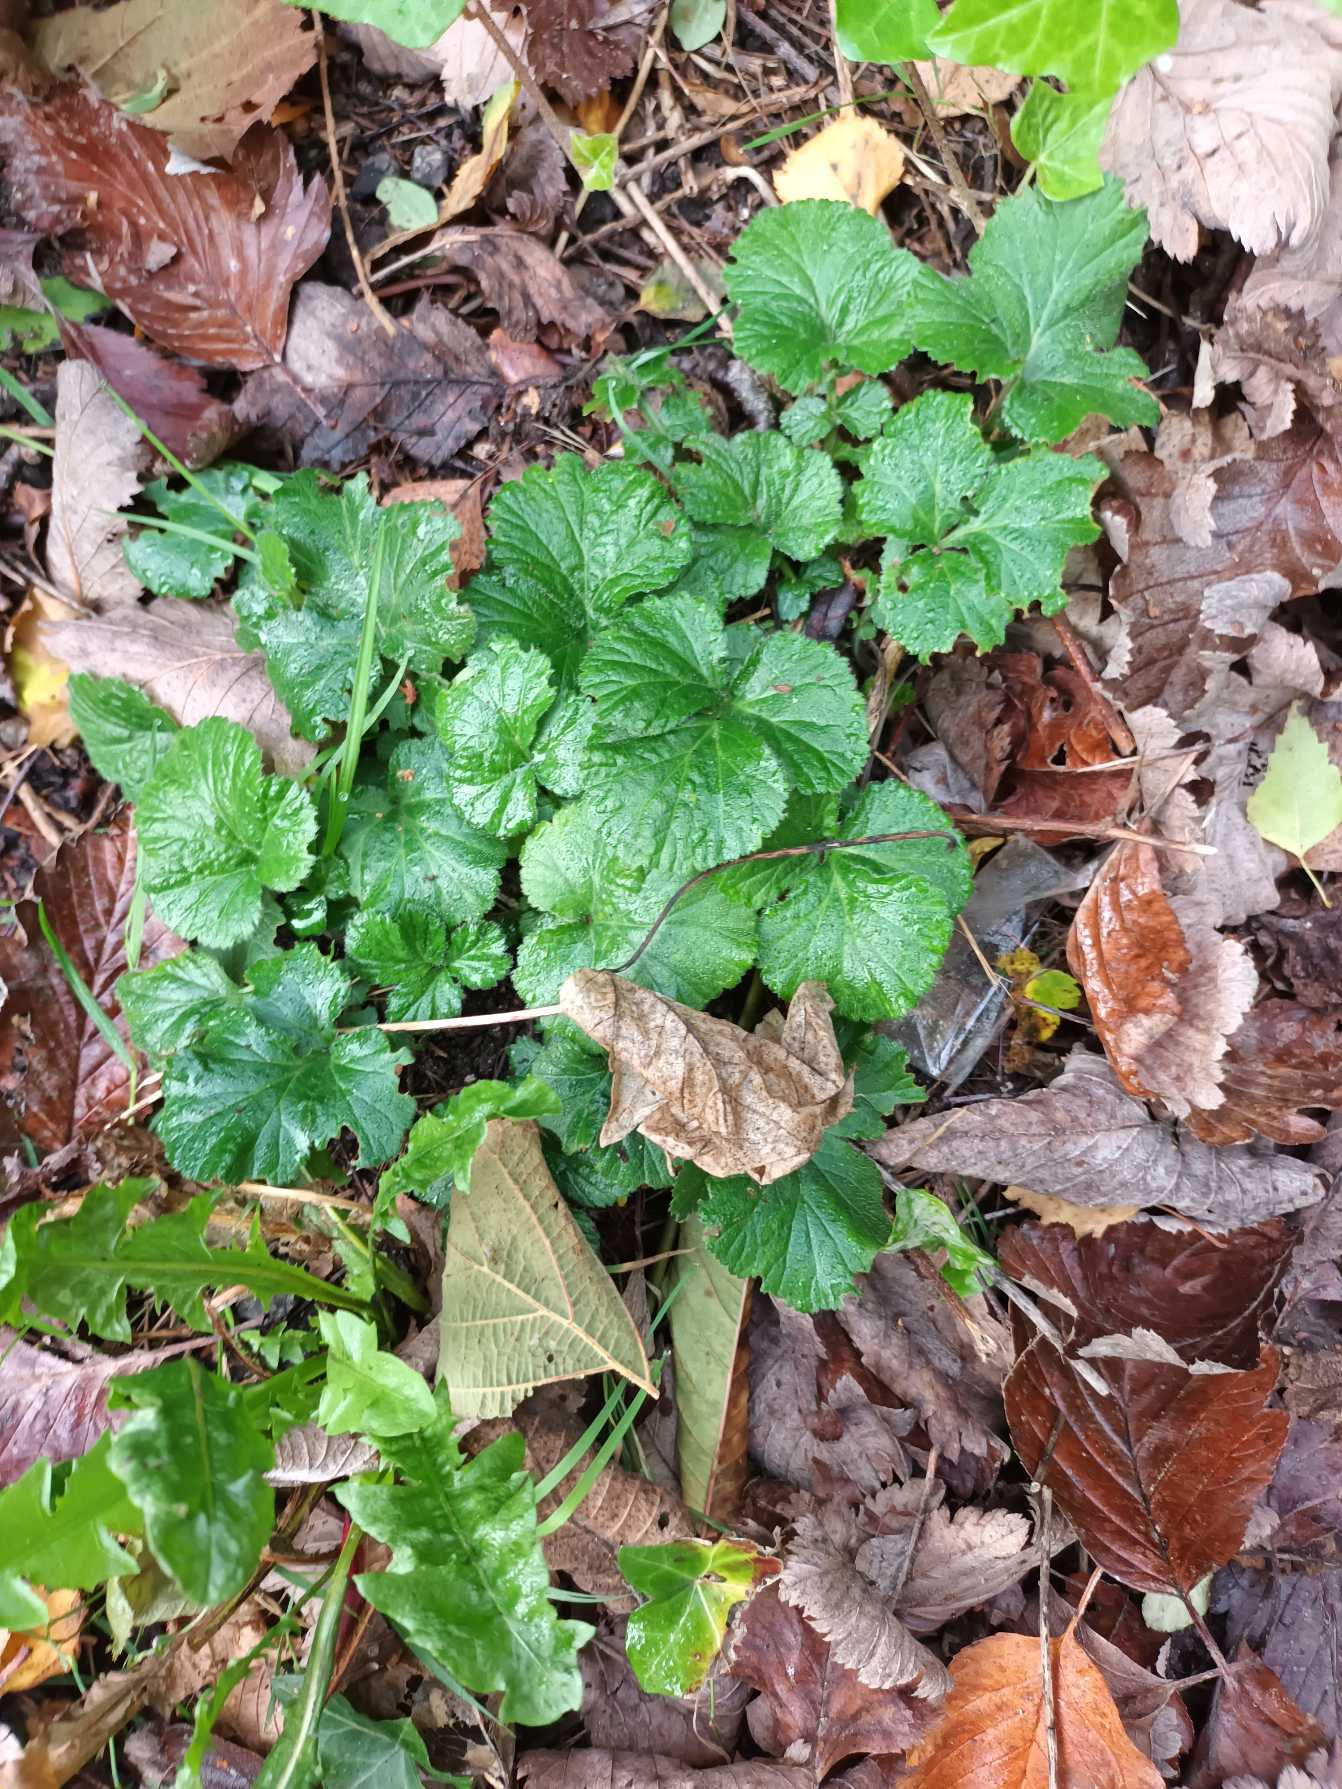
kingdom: Plantae
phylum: Tracheophyta
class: Magnoliopsida
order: Rosales
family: Rosaceae
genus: Geum
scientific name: Geum urbanum
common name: Feber-nellikerod
